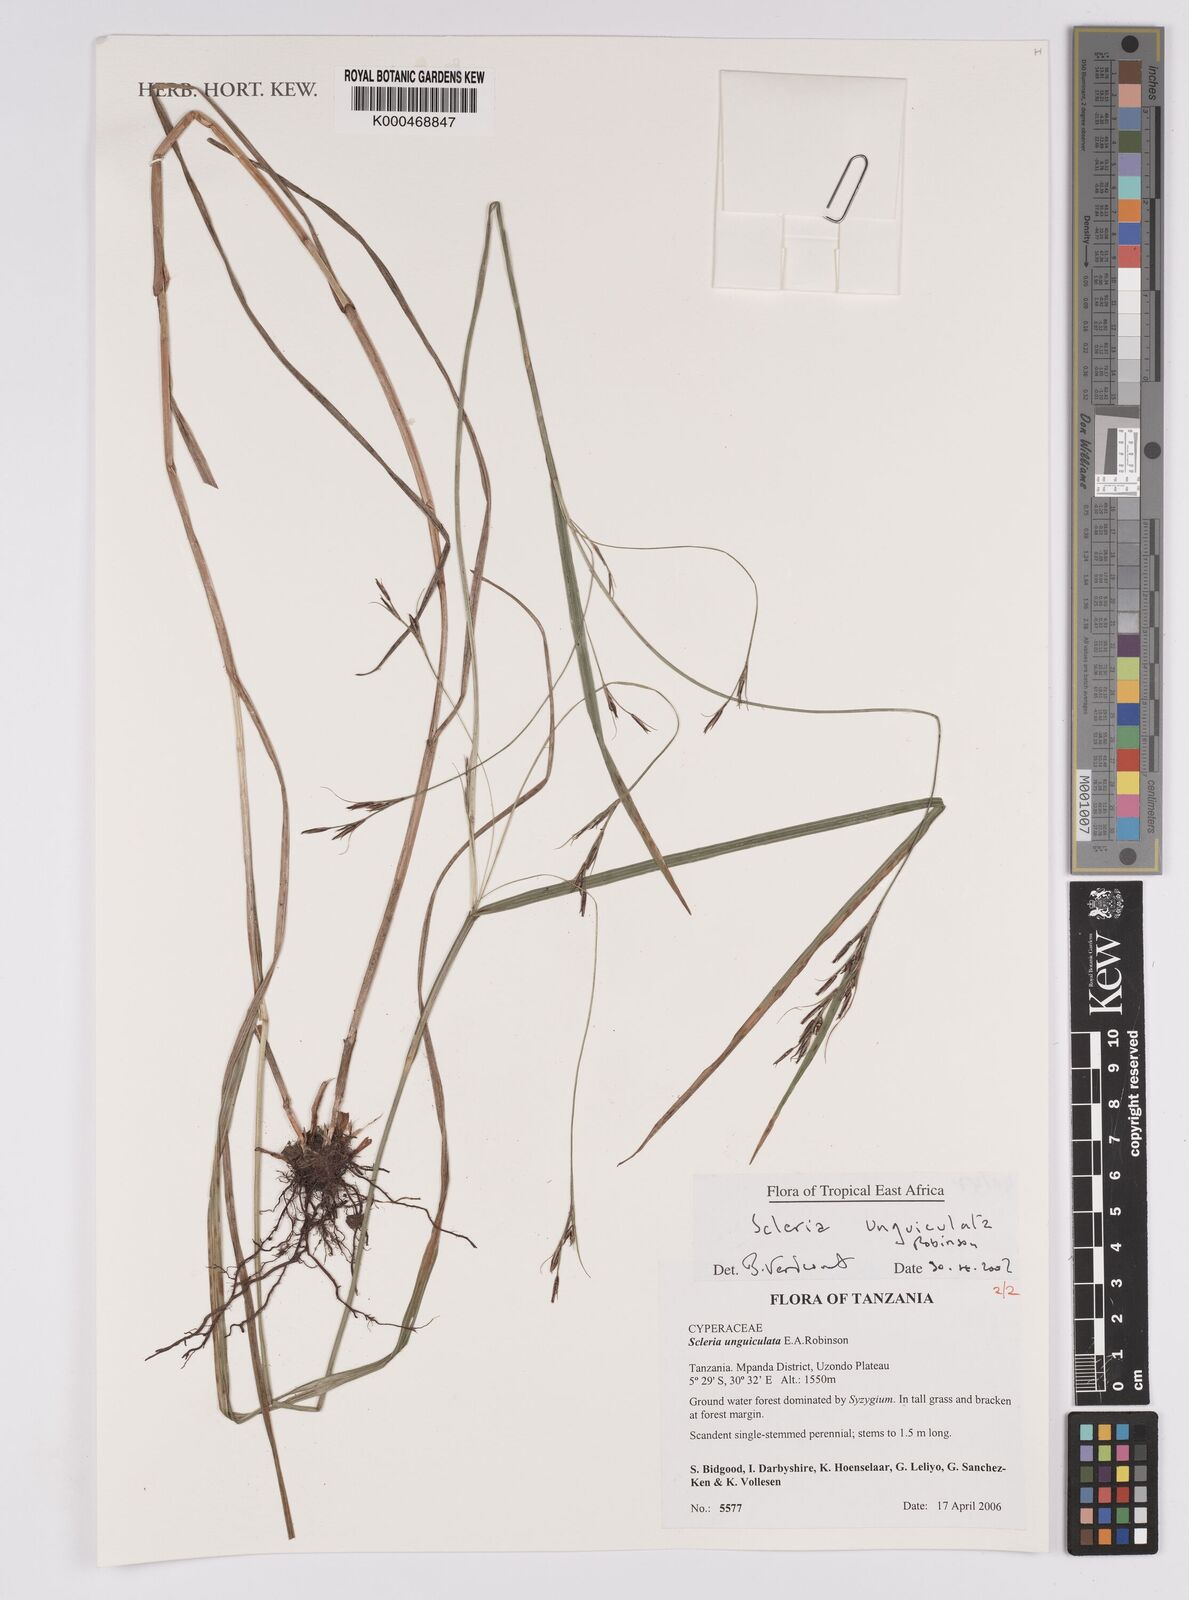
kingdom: Plantae
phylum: Tracheophyta
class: Liliopsida
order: Poales
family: Cyperaceae
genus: Scleria
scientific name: Scleria unguiculata
